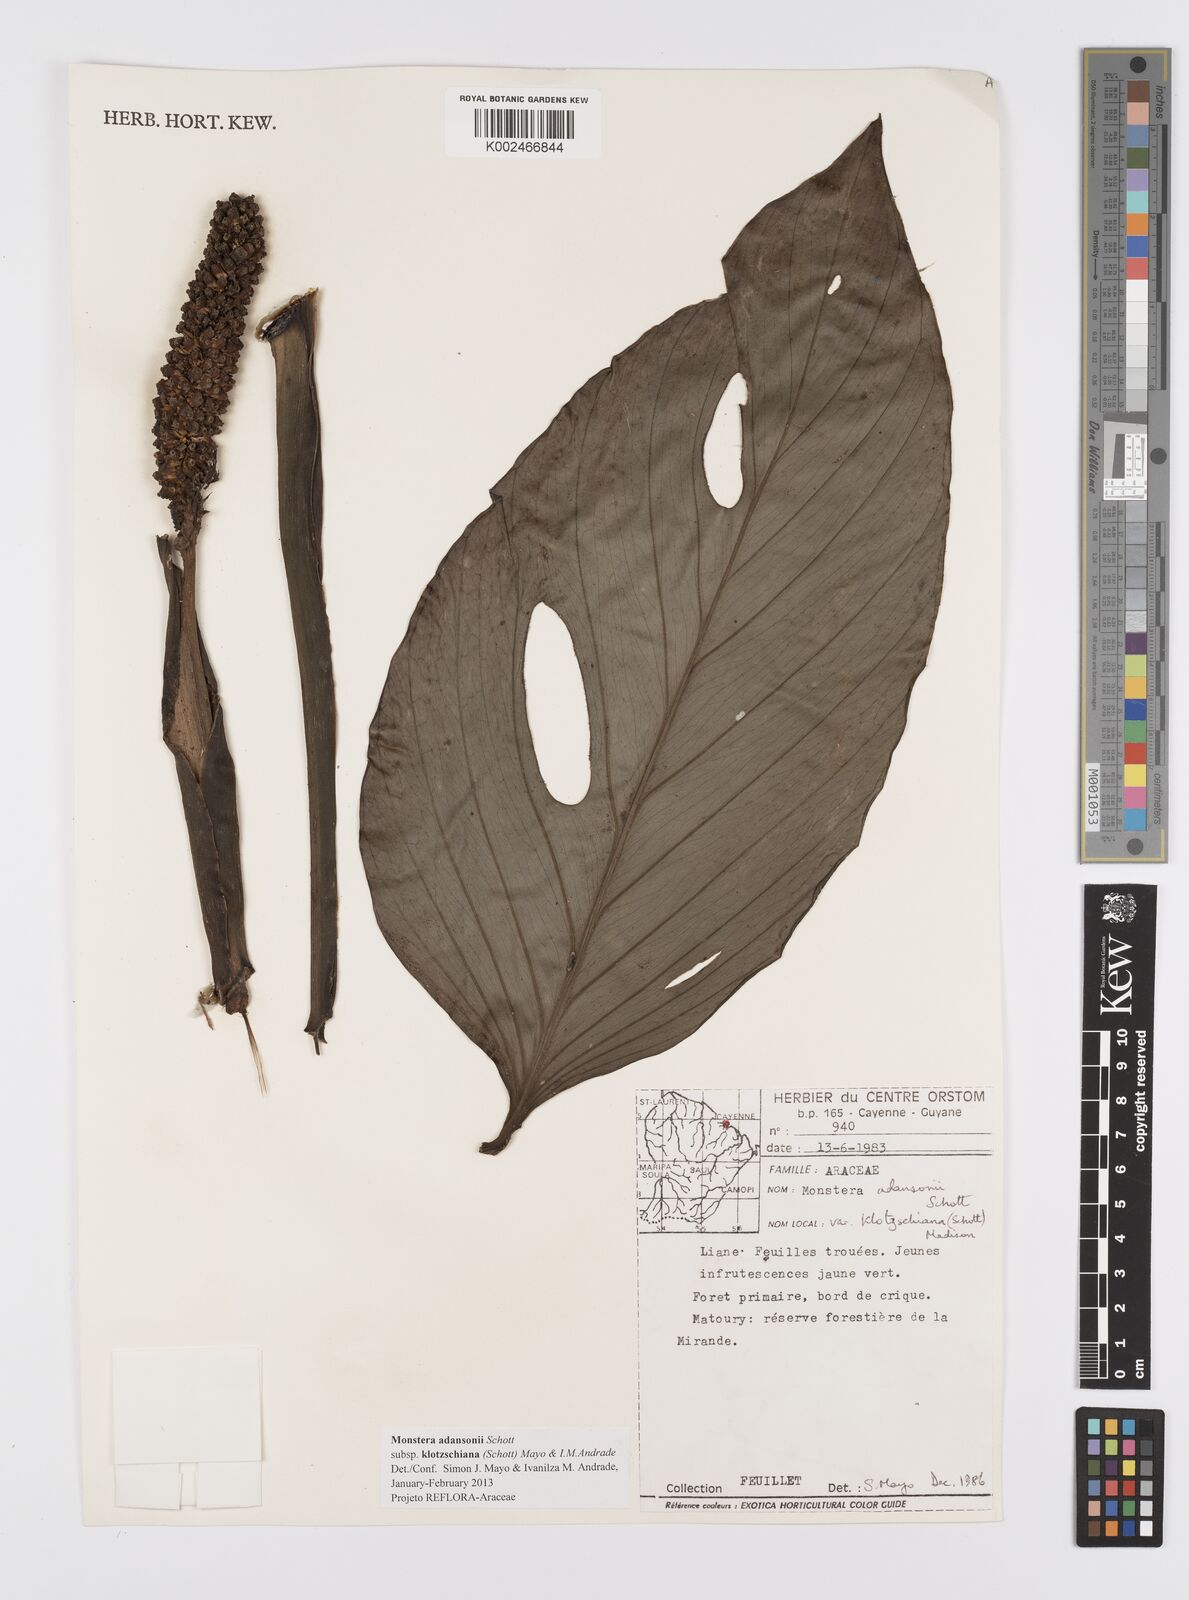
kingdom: Plantae
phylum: Tracheophyta
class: Liliopsida
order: Alismatales
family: Araceae
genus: Monstera
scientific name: Monstera adansonii
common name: Tarovine
